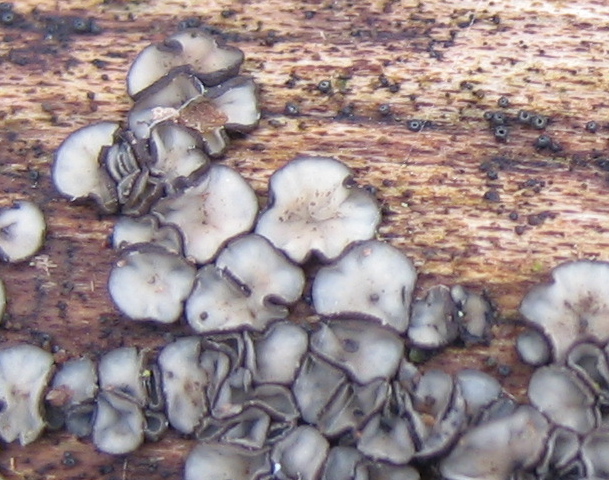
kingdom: Fungi
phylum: Ascomycota
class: Leotiomycetes
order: Helotiales
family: Mollisiaceae
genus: Mollisia
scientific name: Mollisia
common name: gråskive
